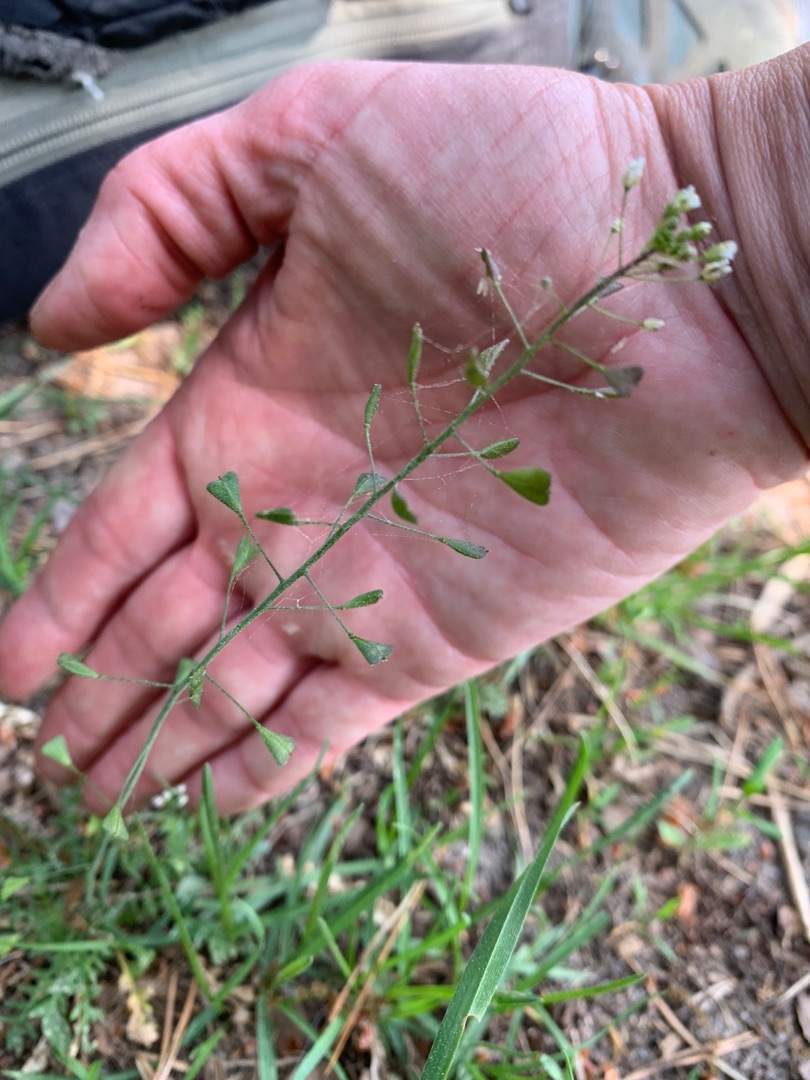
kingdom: Plantae
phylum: Tracheophyta
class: Magnoliopsida
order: Brassicales
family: Brassicaceae
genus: Capsella
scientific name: Capsella bursa-pastoris
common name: Hyrdetaske
